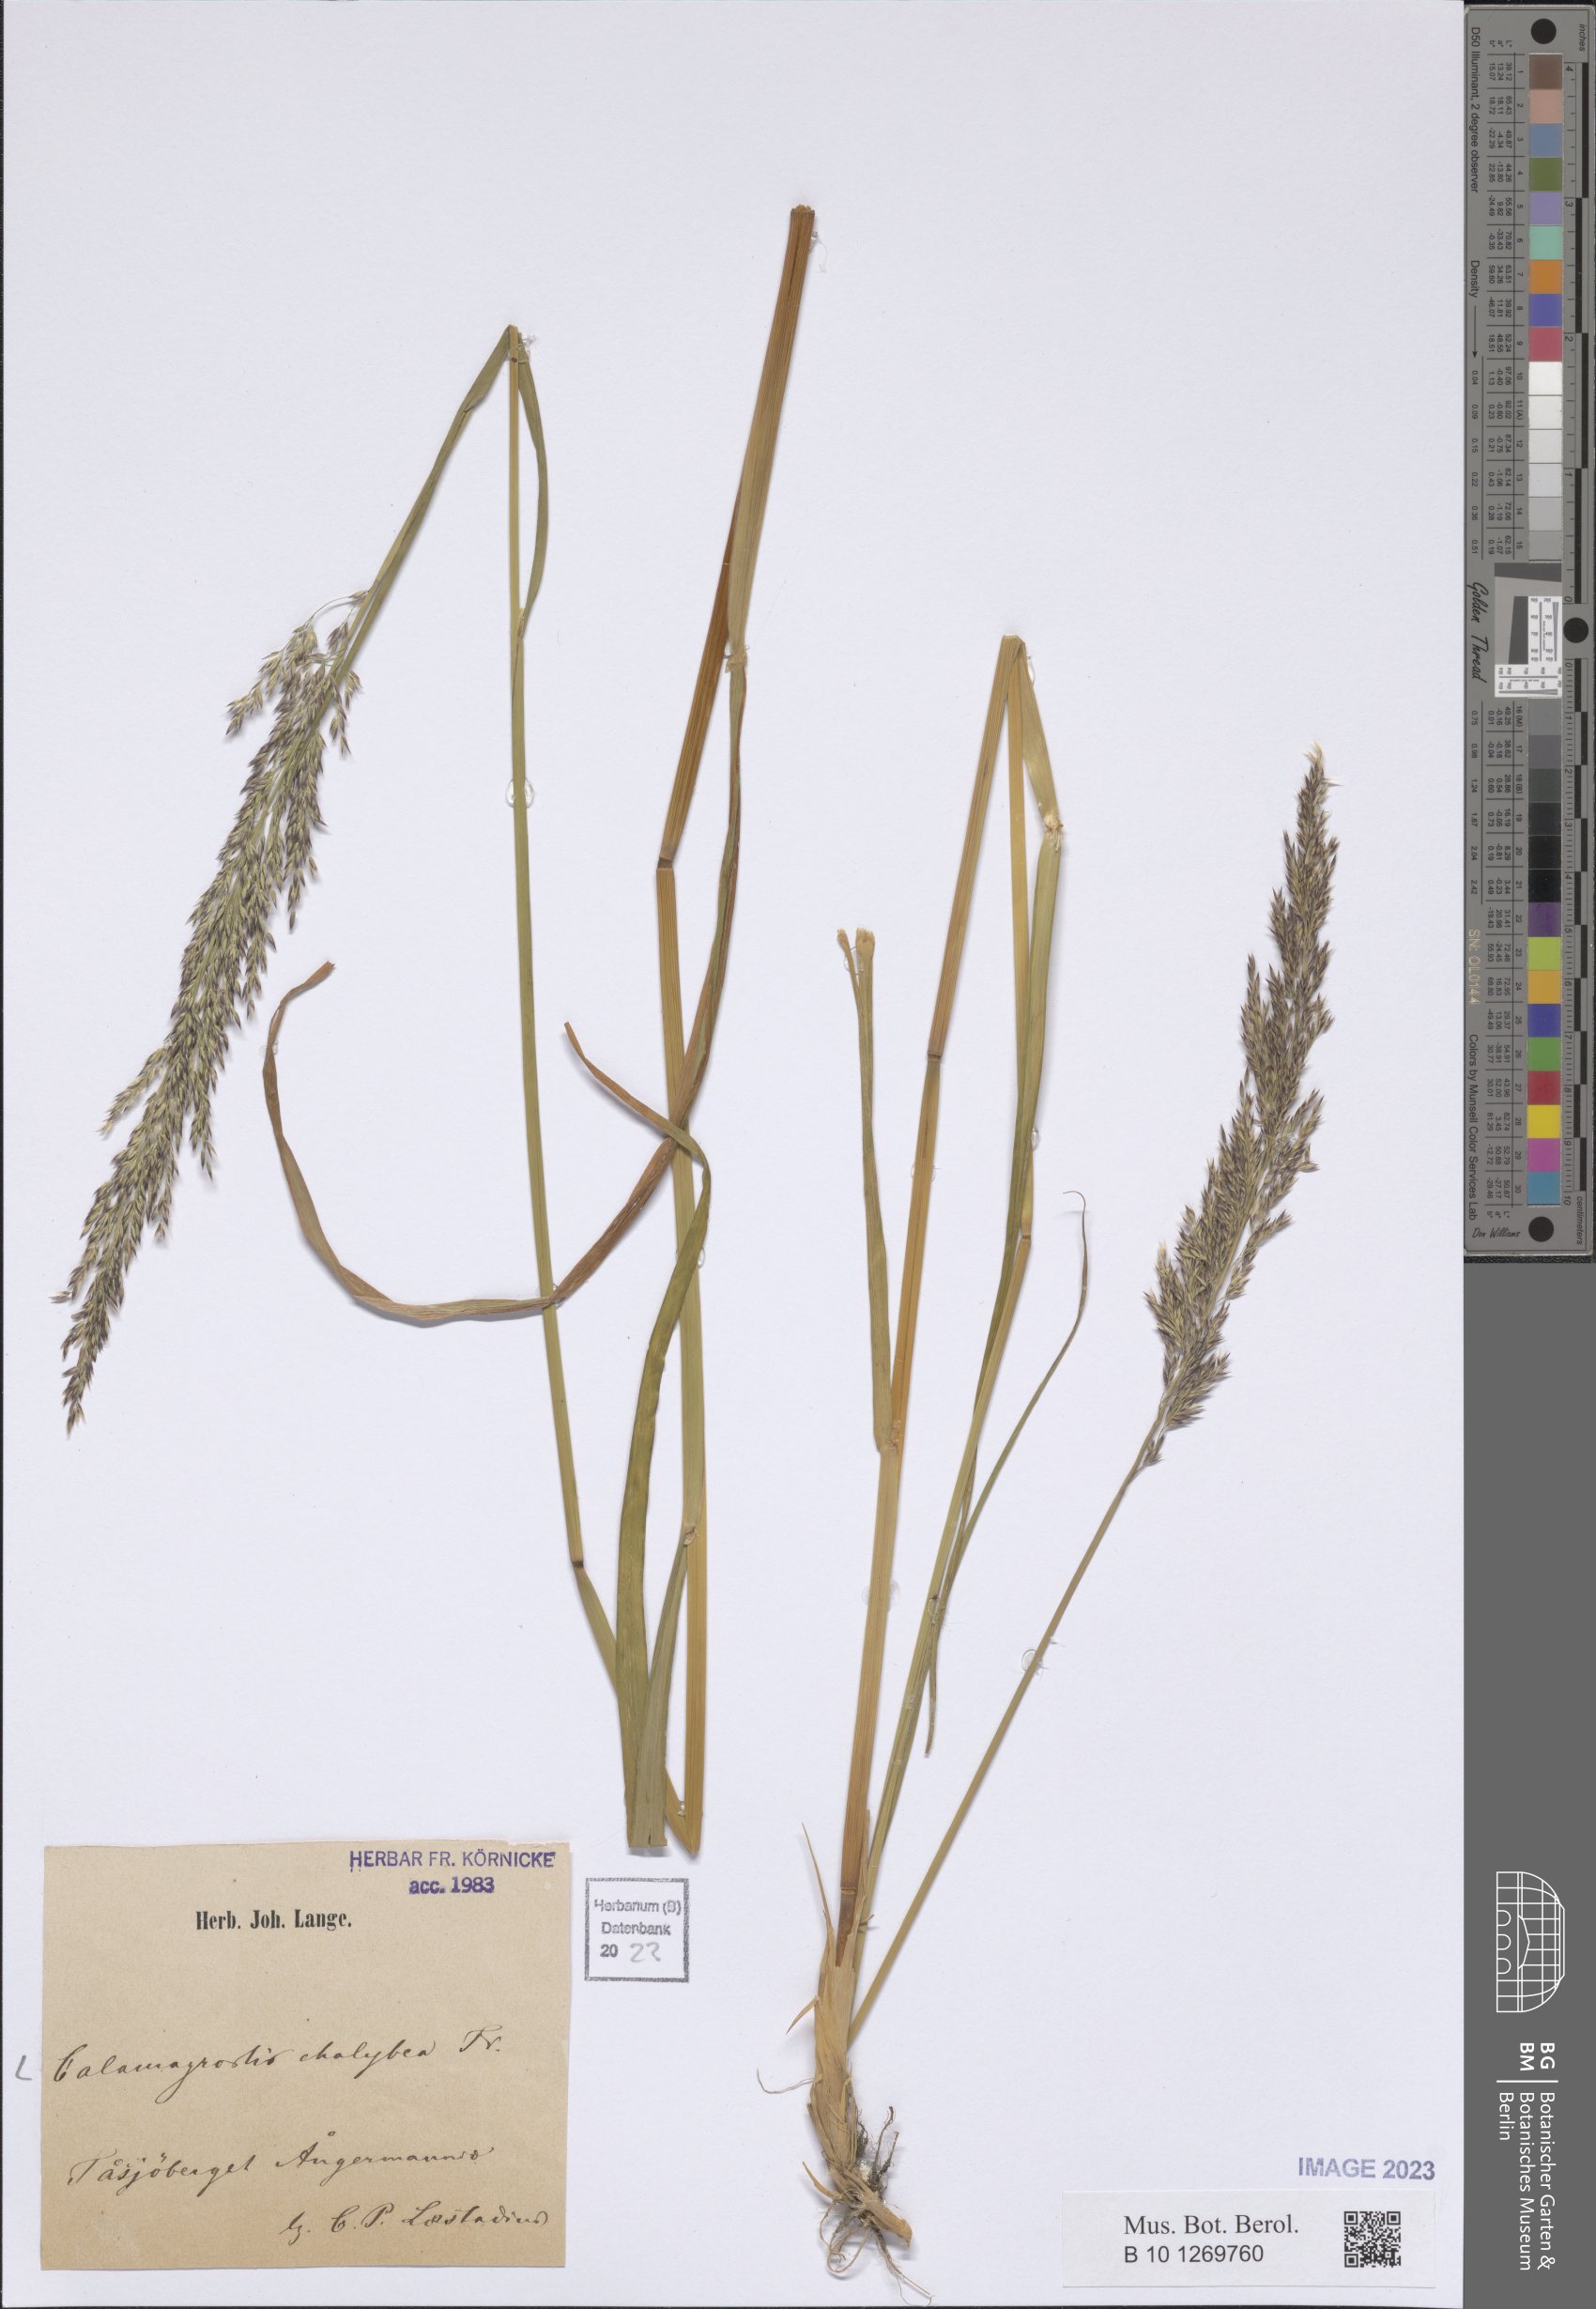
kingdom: Plantae
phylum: Tracheophyta
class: Liliopsida
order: Poales
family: Poaceae
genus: Calamagrostis
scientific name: Calamagrostis chalybaea
